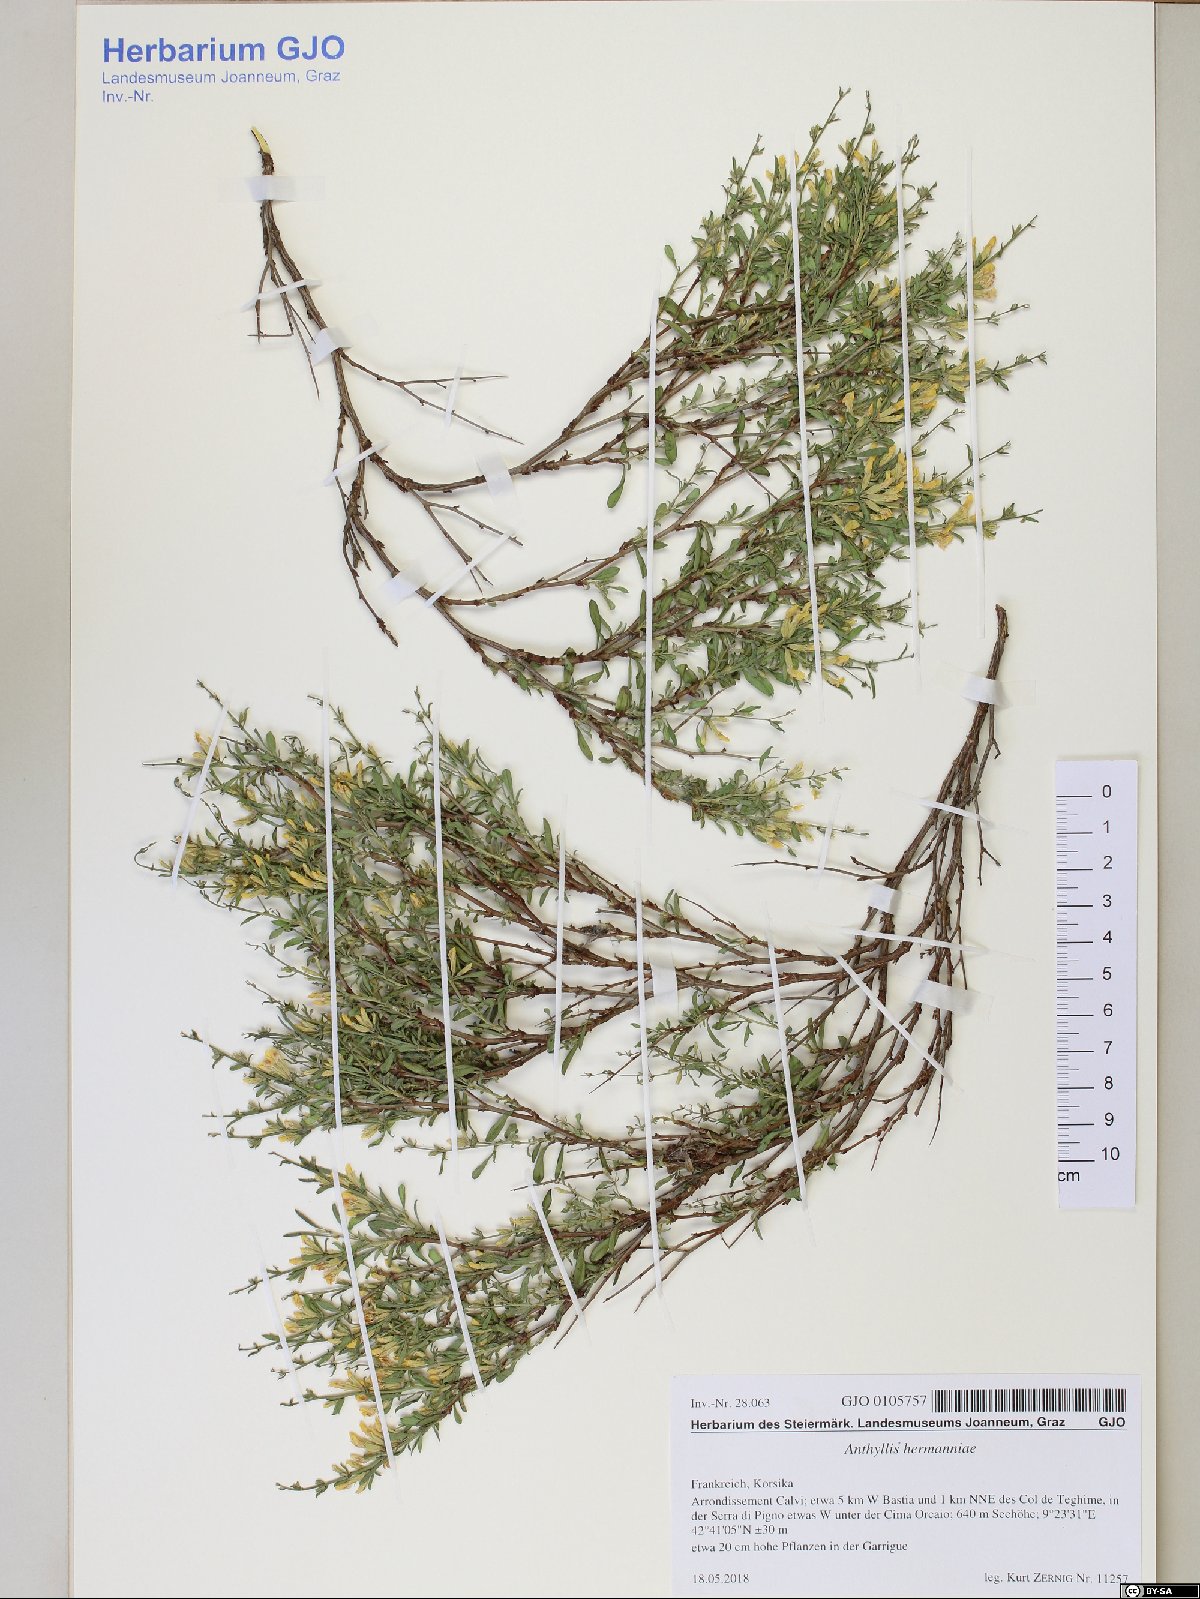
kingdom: Plantae
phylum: Tracheophyta
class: Magnoliopsida
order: Fabales
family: Fabaceae
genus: Anthyllis
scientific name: Anthyllis hermanniae
